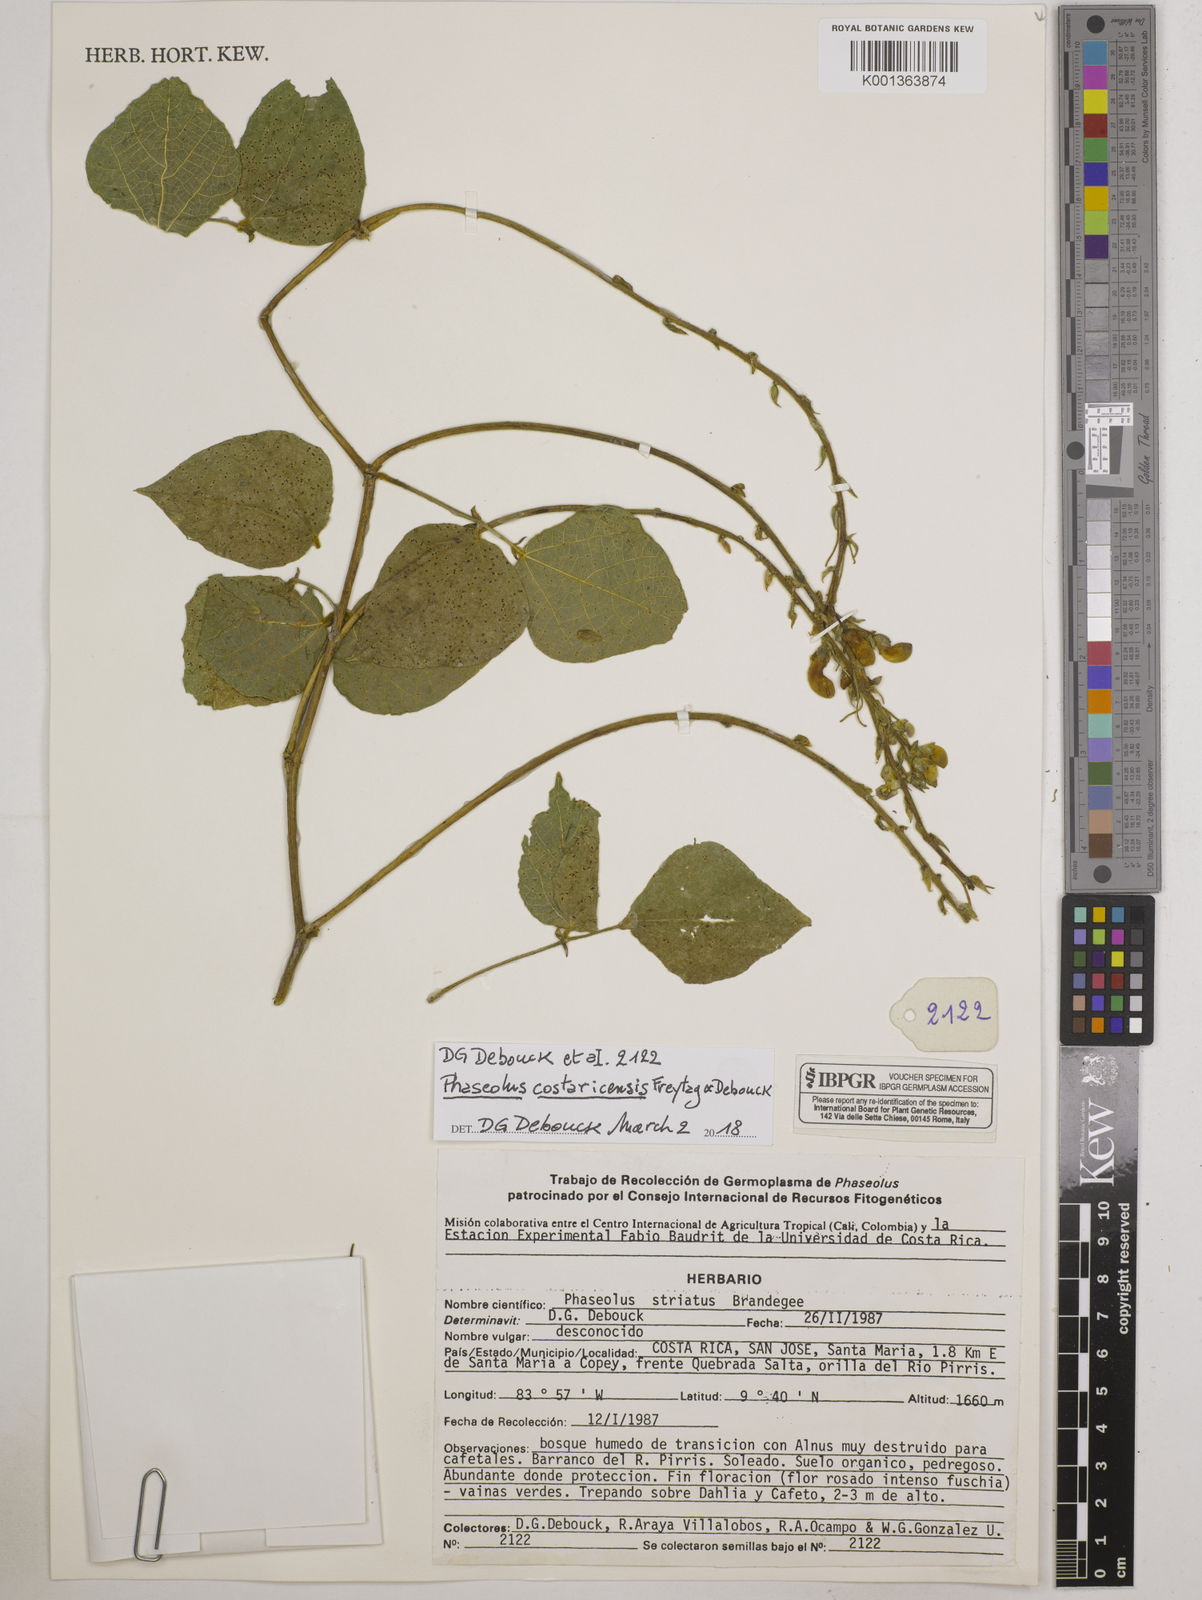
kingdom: Plantae
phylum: Tracheophyta
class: Magnoliopsida
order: Fabales
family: Fabaceae
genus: Phaseolus
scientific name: Phaseolus costaricensis
